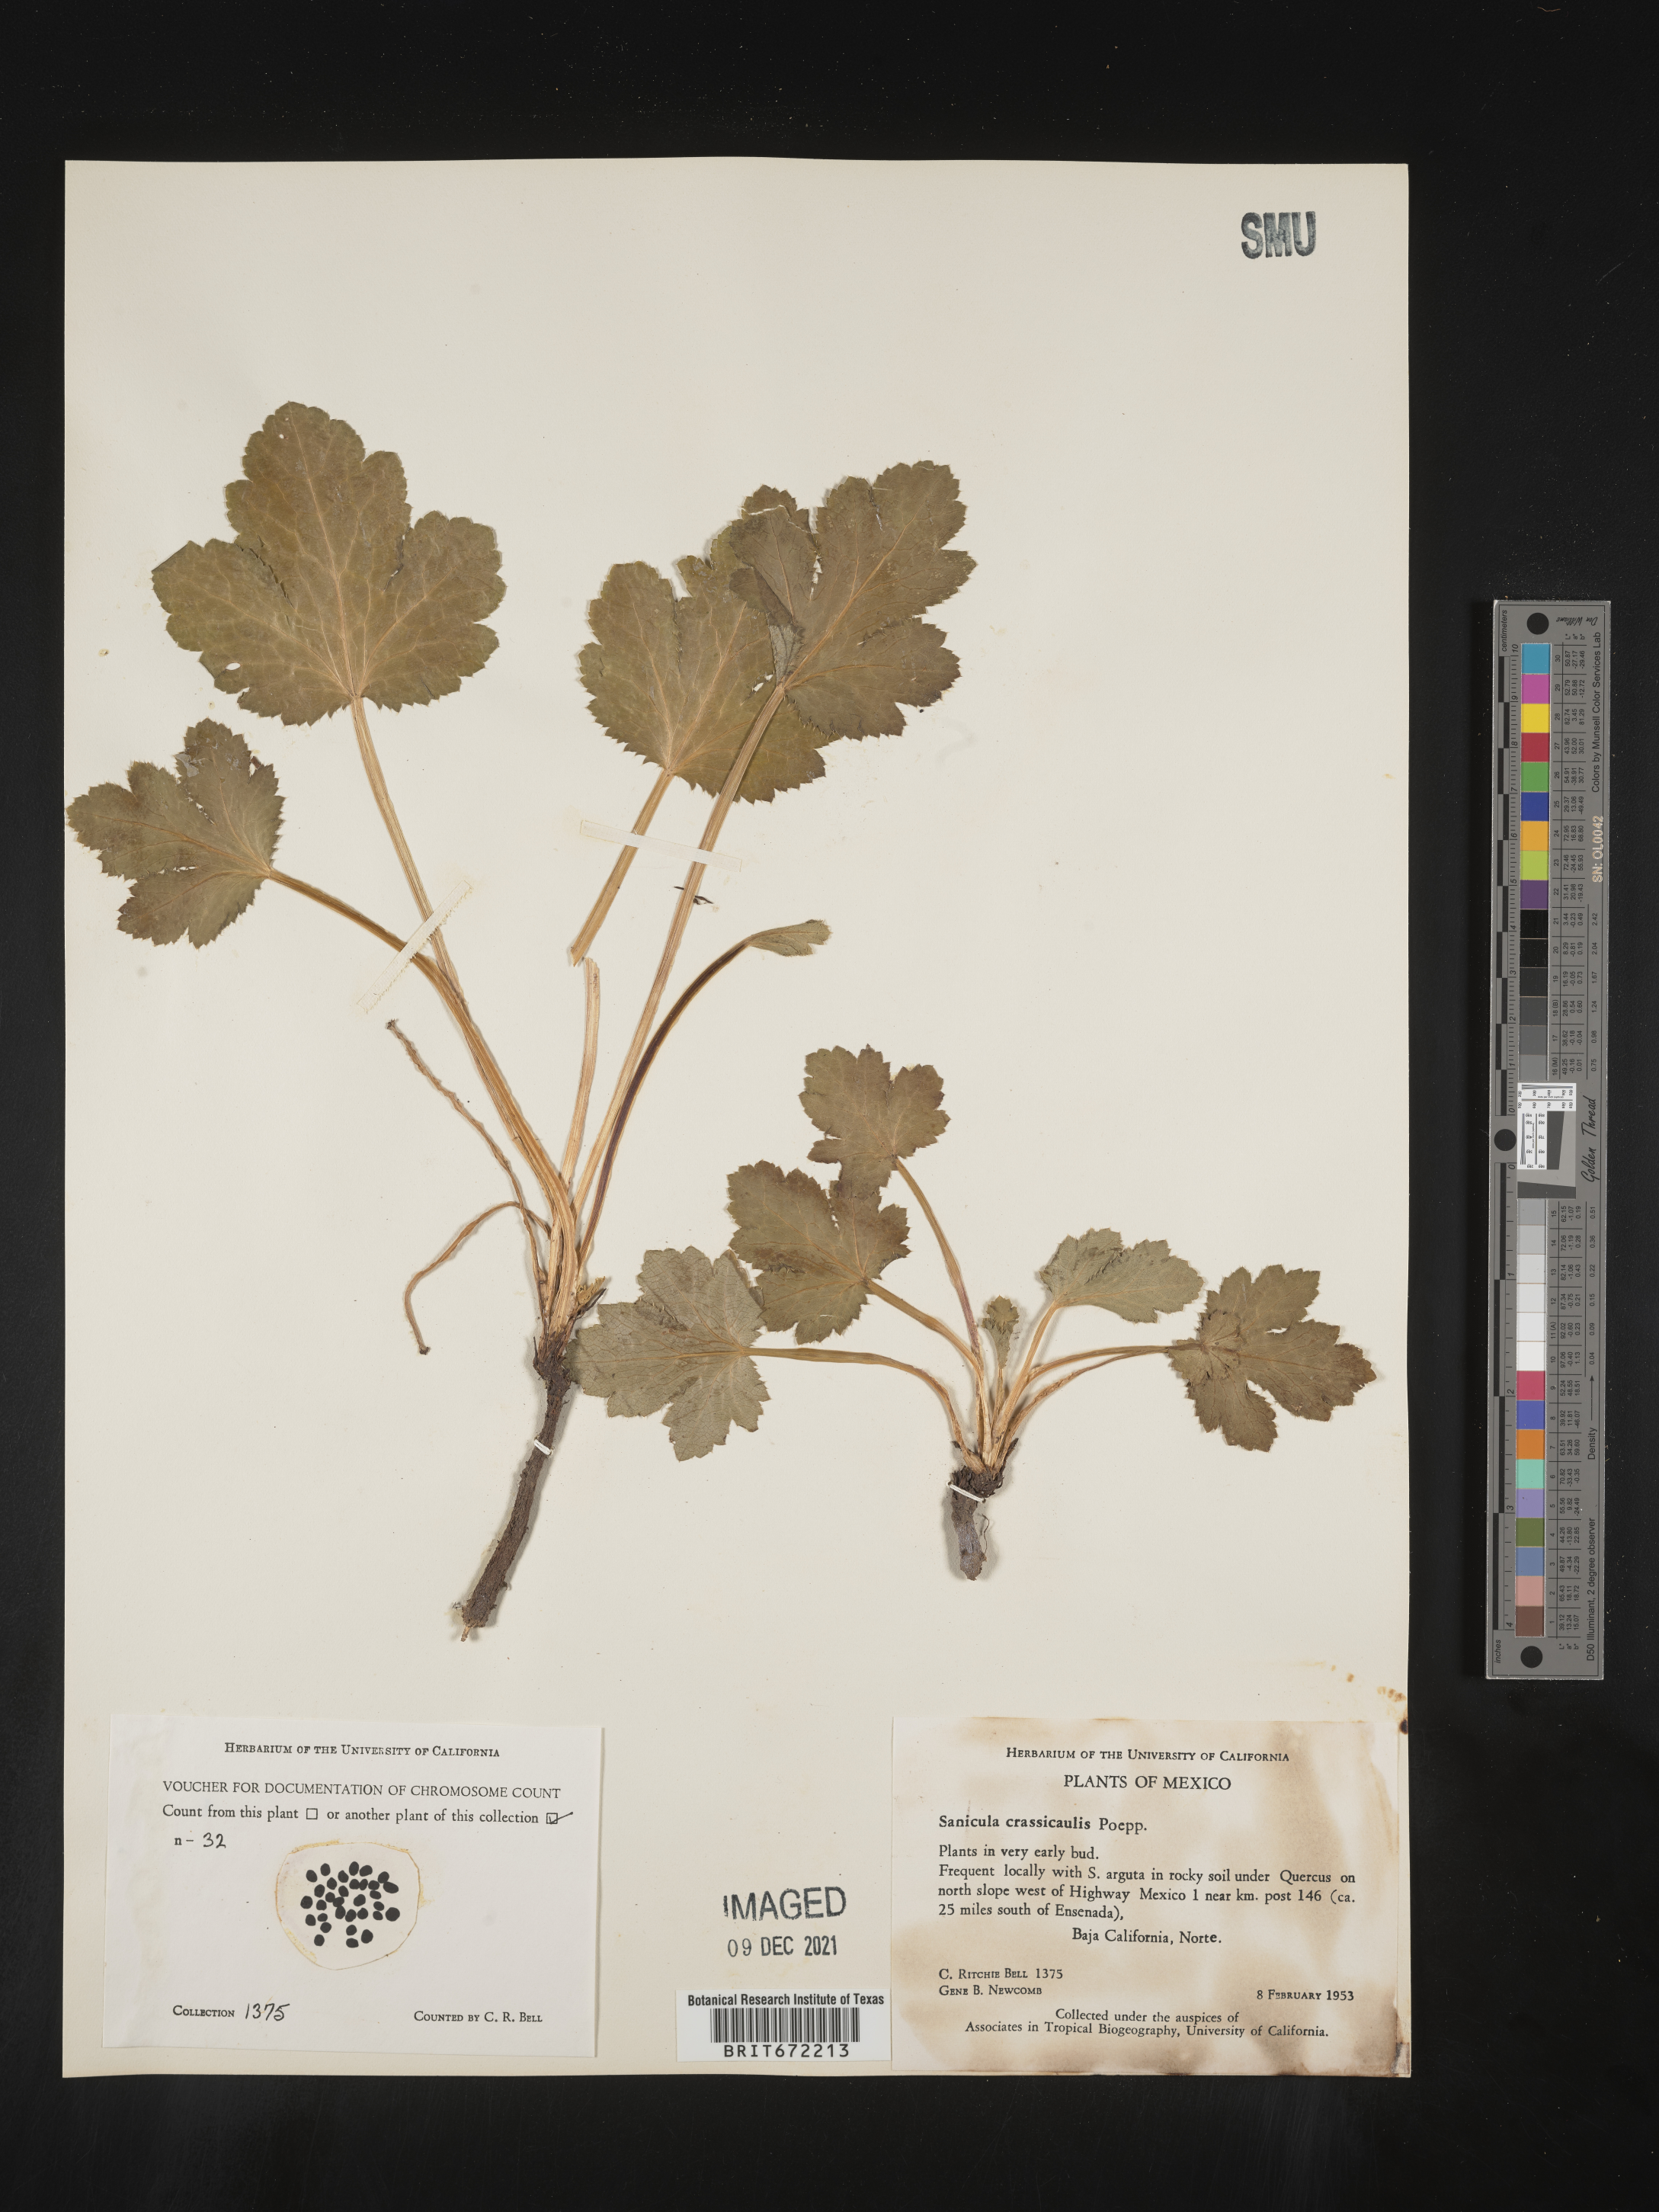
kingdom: Plantae
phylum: Tracheophyta
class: Magnoliopsida
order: Apiales
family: Apiaceae
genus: Sanicula
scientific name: Sanicula
